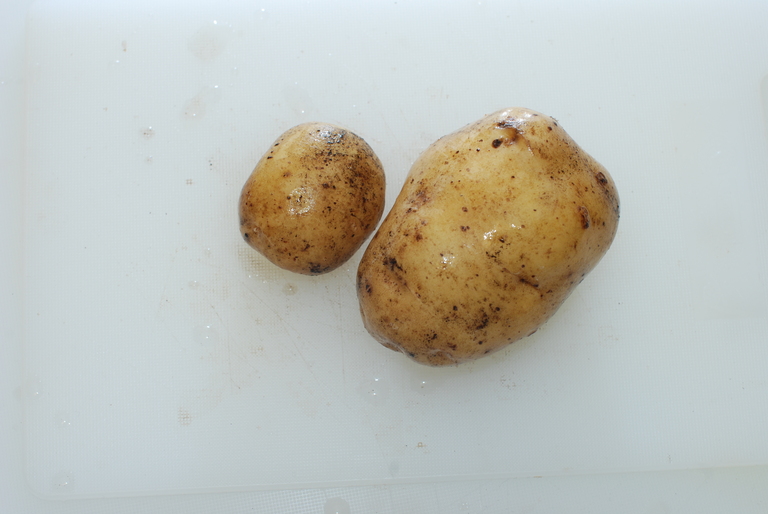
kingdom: Plantae
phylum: Tracheophyta
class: Magnoliopsida
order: Solanales
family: Solanaceae
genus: Solanum
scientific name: Solanum tuberosum
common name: Potato
